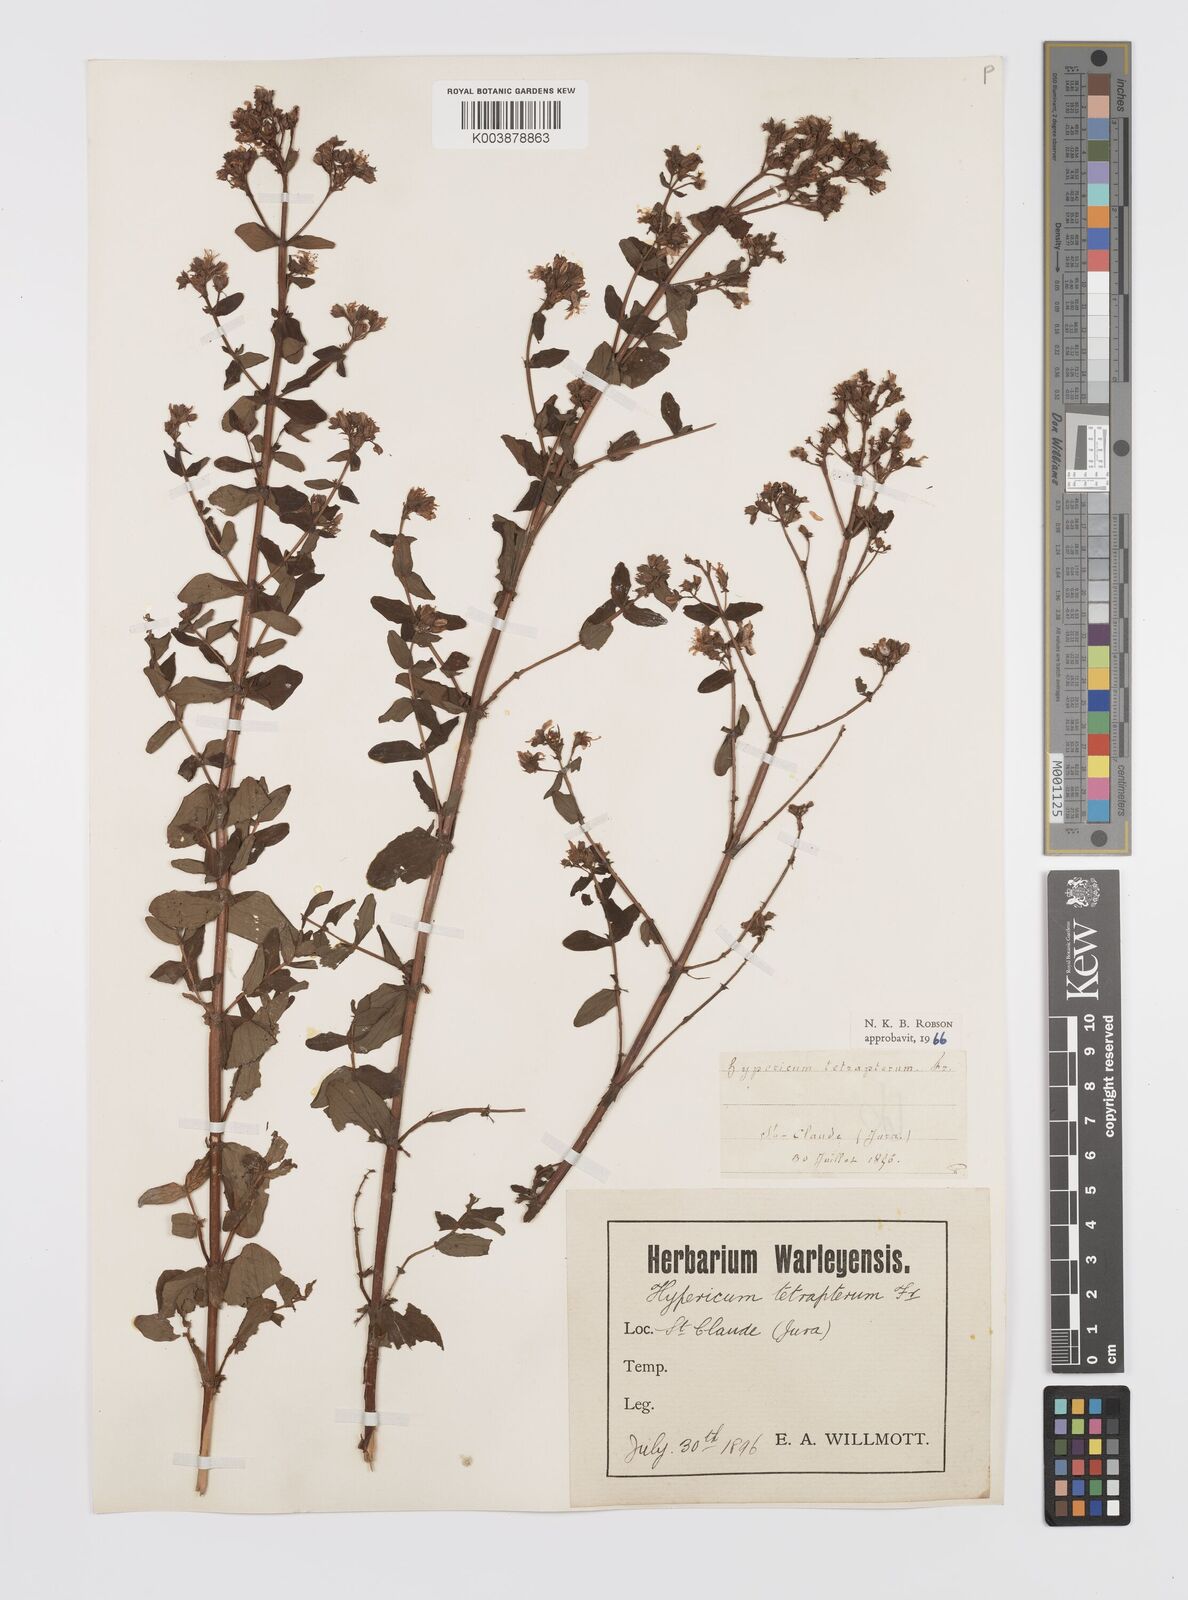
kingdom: Plantae
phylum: Tracheophyta
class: Magnoliopsida
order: Malpighiales
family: Hypericaceae
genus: Hypericum
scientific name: Hypericum tetrapterum
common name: Square-stalked st. john's-wort
